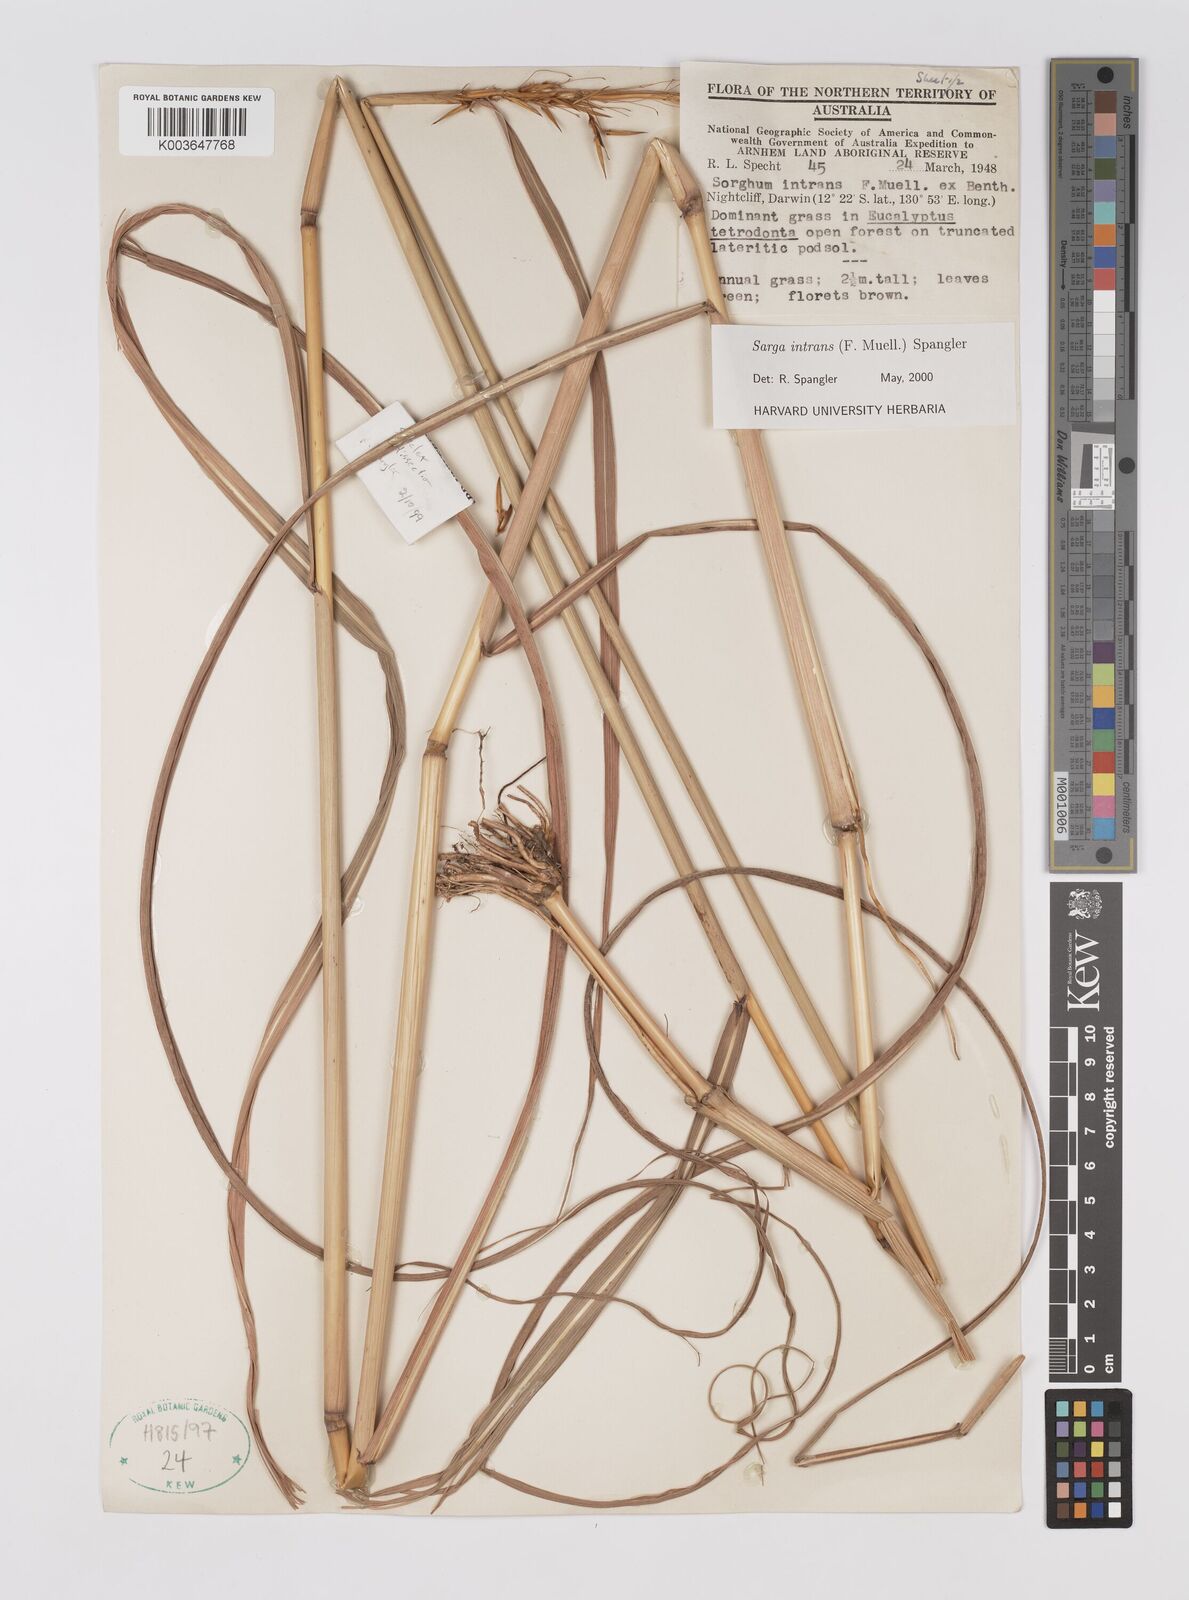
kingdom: Plantae
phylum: Tracheophyta
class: Liliopsida
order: Poales
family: Poaceae
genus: Sarga
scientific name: Sarga intrans
